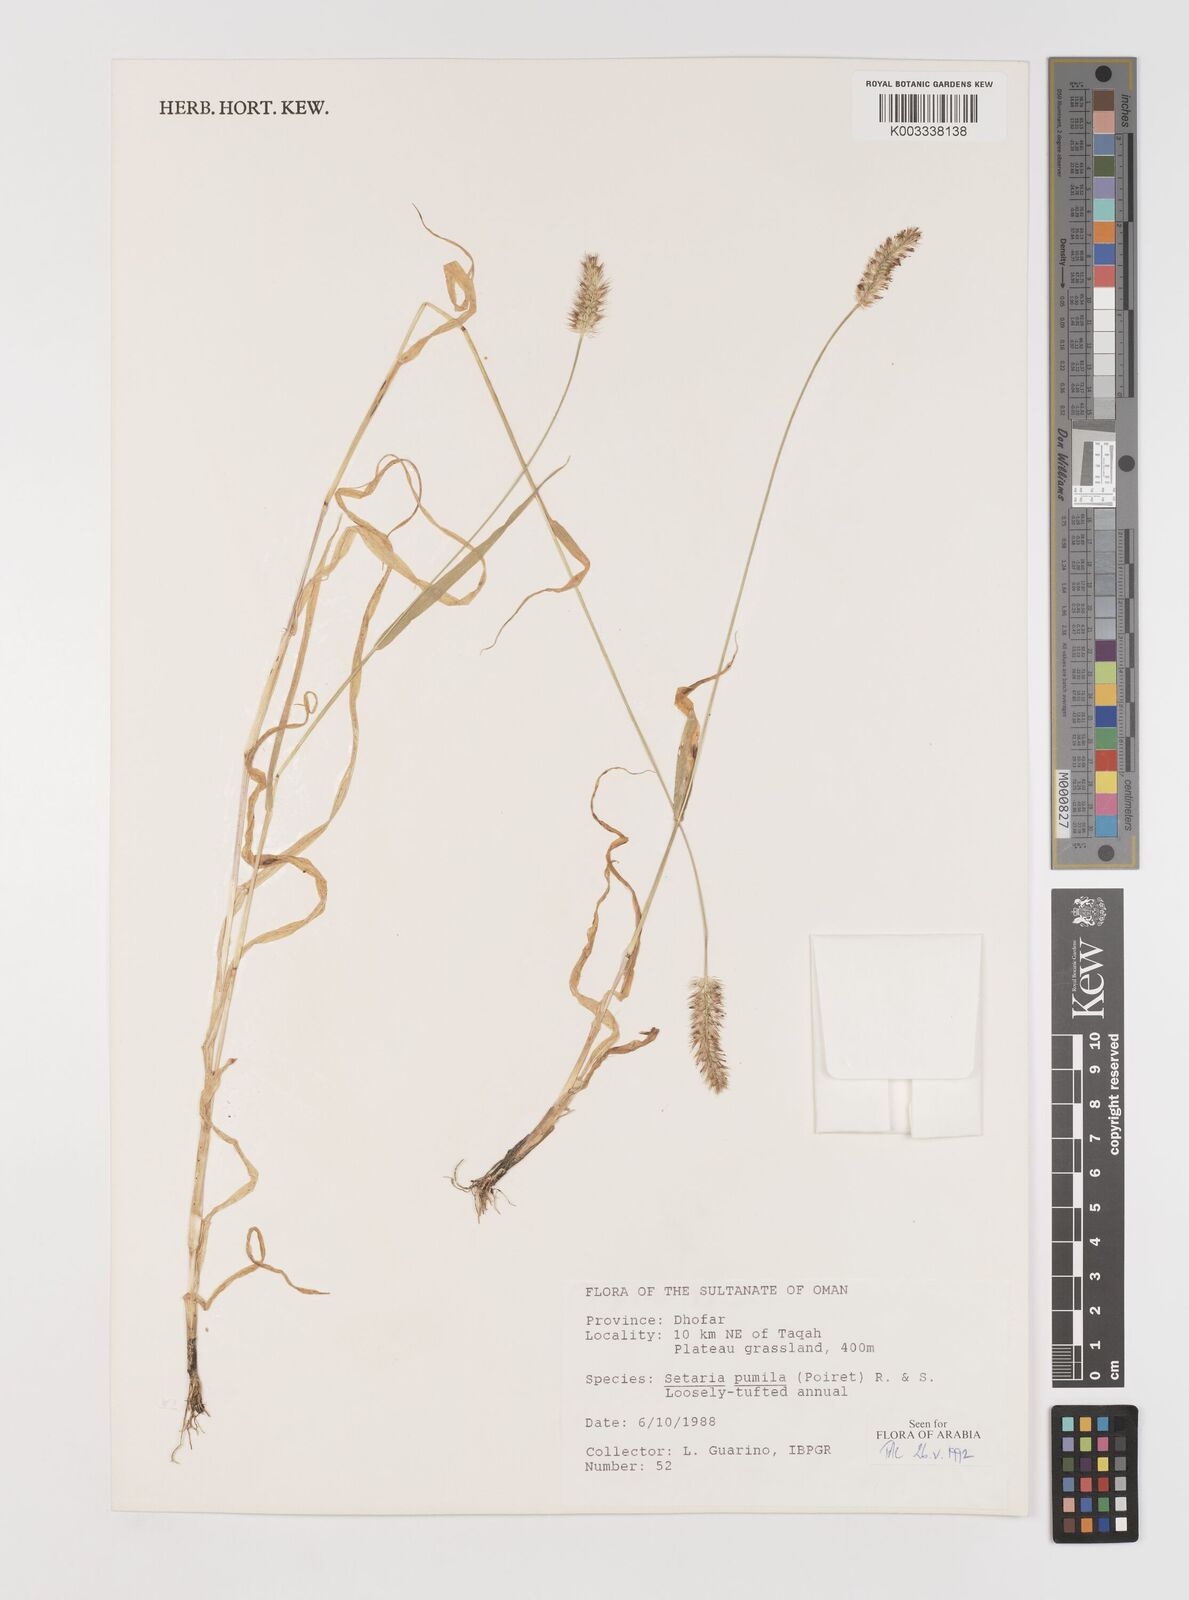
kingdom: Plantae
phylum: Tracheophyta
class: Liliopsida
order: Poales
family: Poaceae
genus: Setaria
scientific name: Setaria pumila
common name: Yellow bristle-grass
